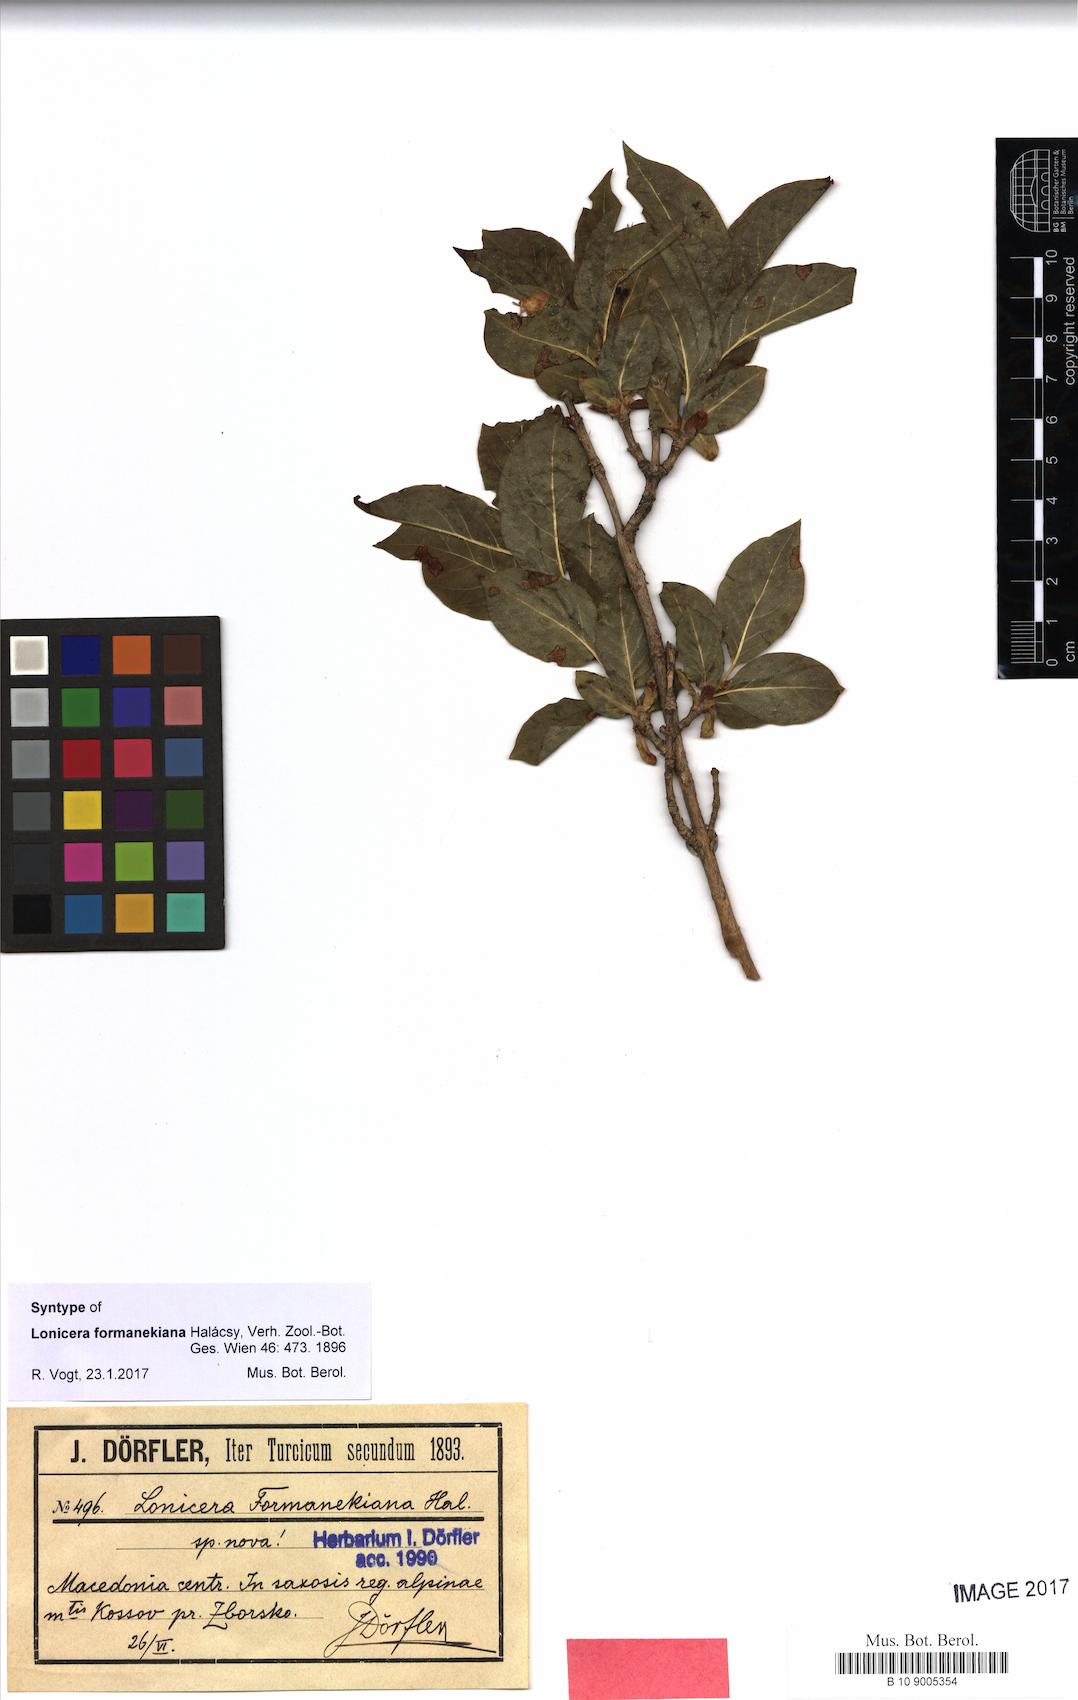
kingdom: Plantae
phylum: Tracheophyta
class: Magnoliopsida
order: Dipsacales
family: Caprifoliaceae
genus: Lonicera
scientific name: Lonicera alpigena
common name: Alpine honeysuckle
